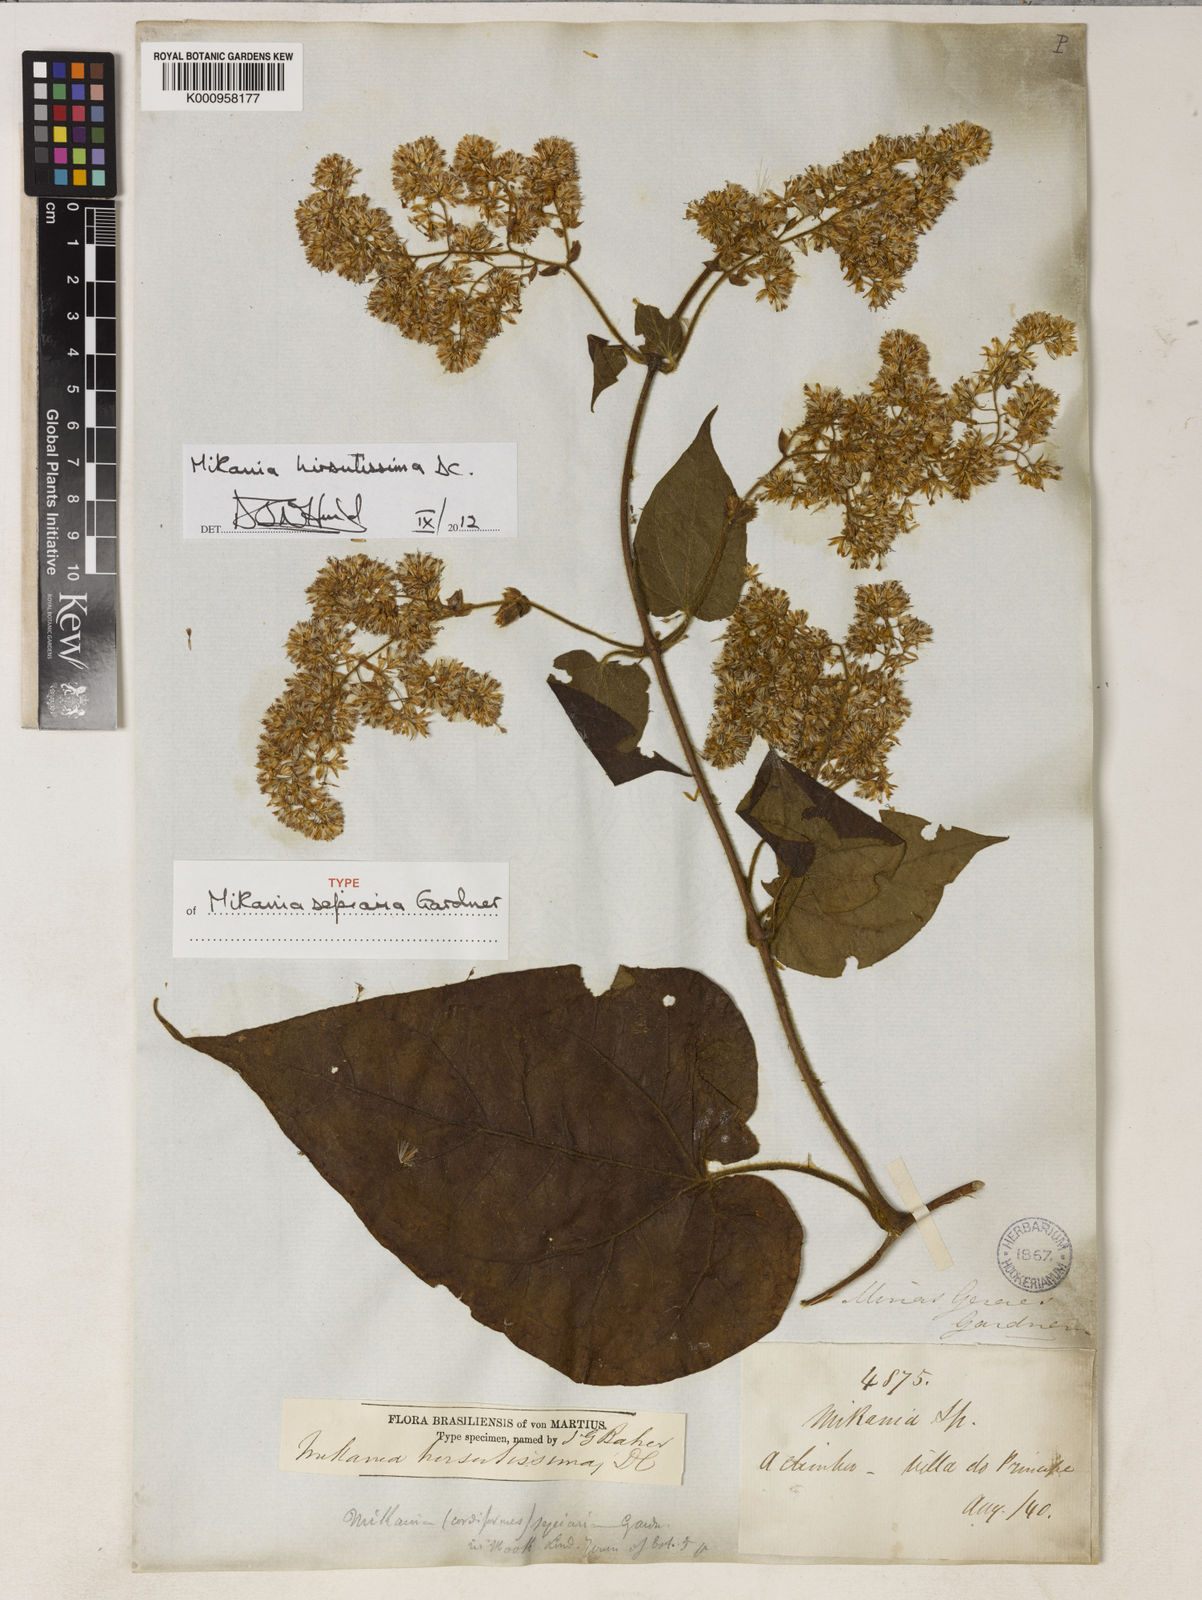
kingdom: Plantae
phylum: Tracheophyta
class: Magnoliopsida
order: Asterales
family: Asteraceae
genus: Mikania
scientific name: Mikania banisteriae
